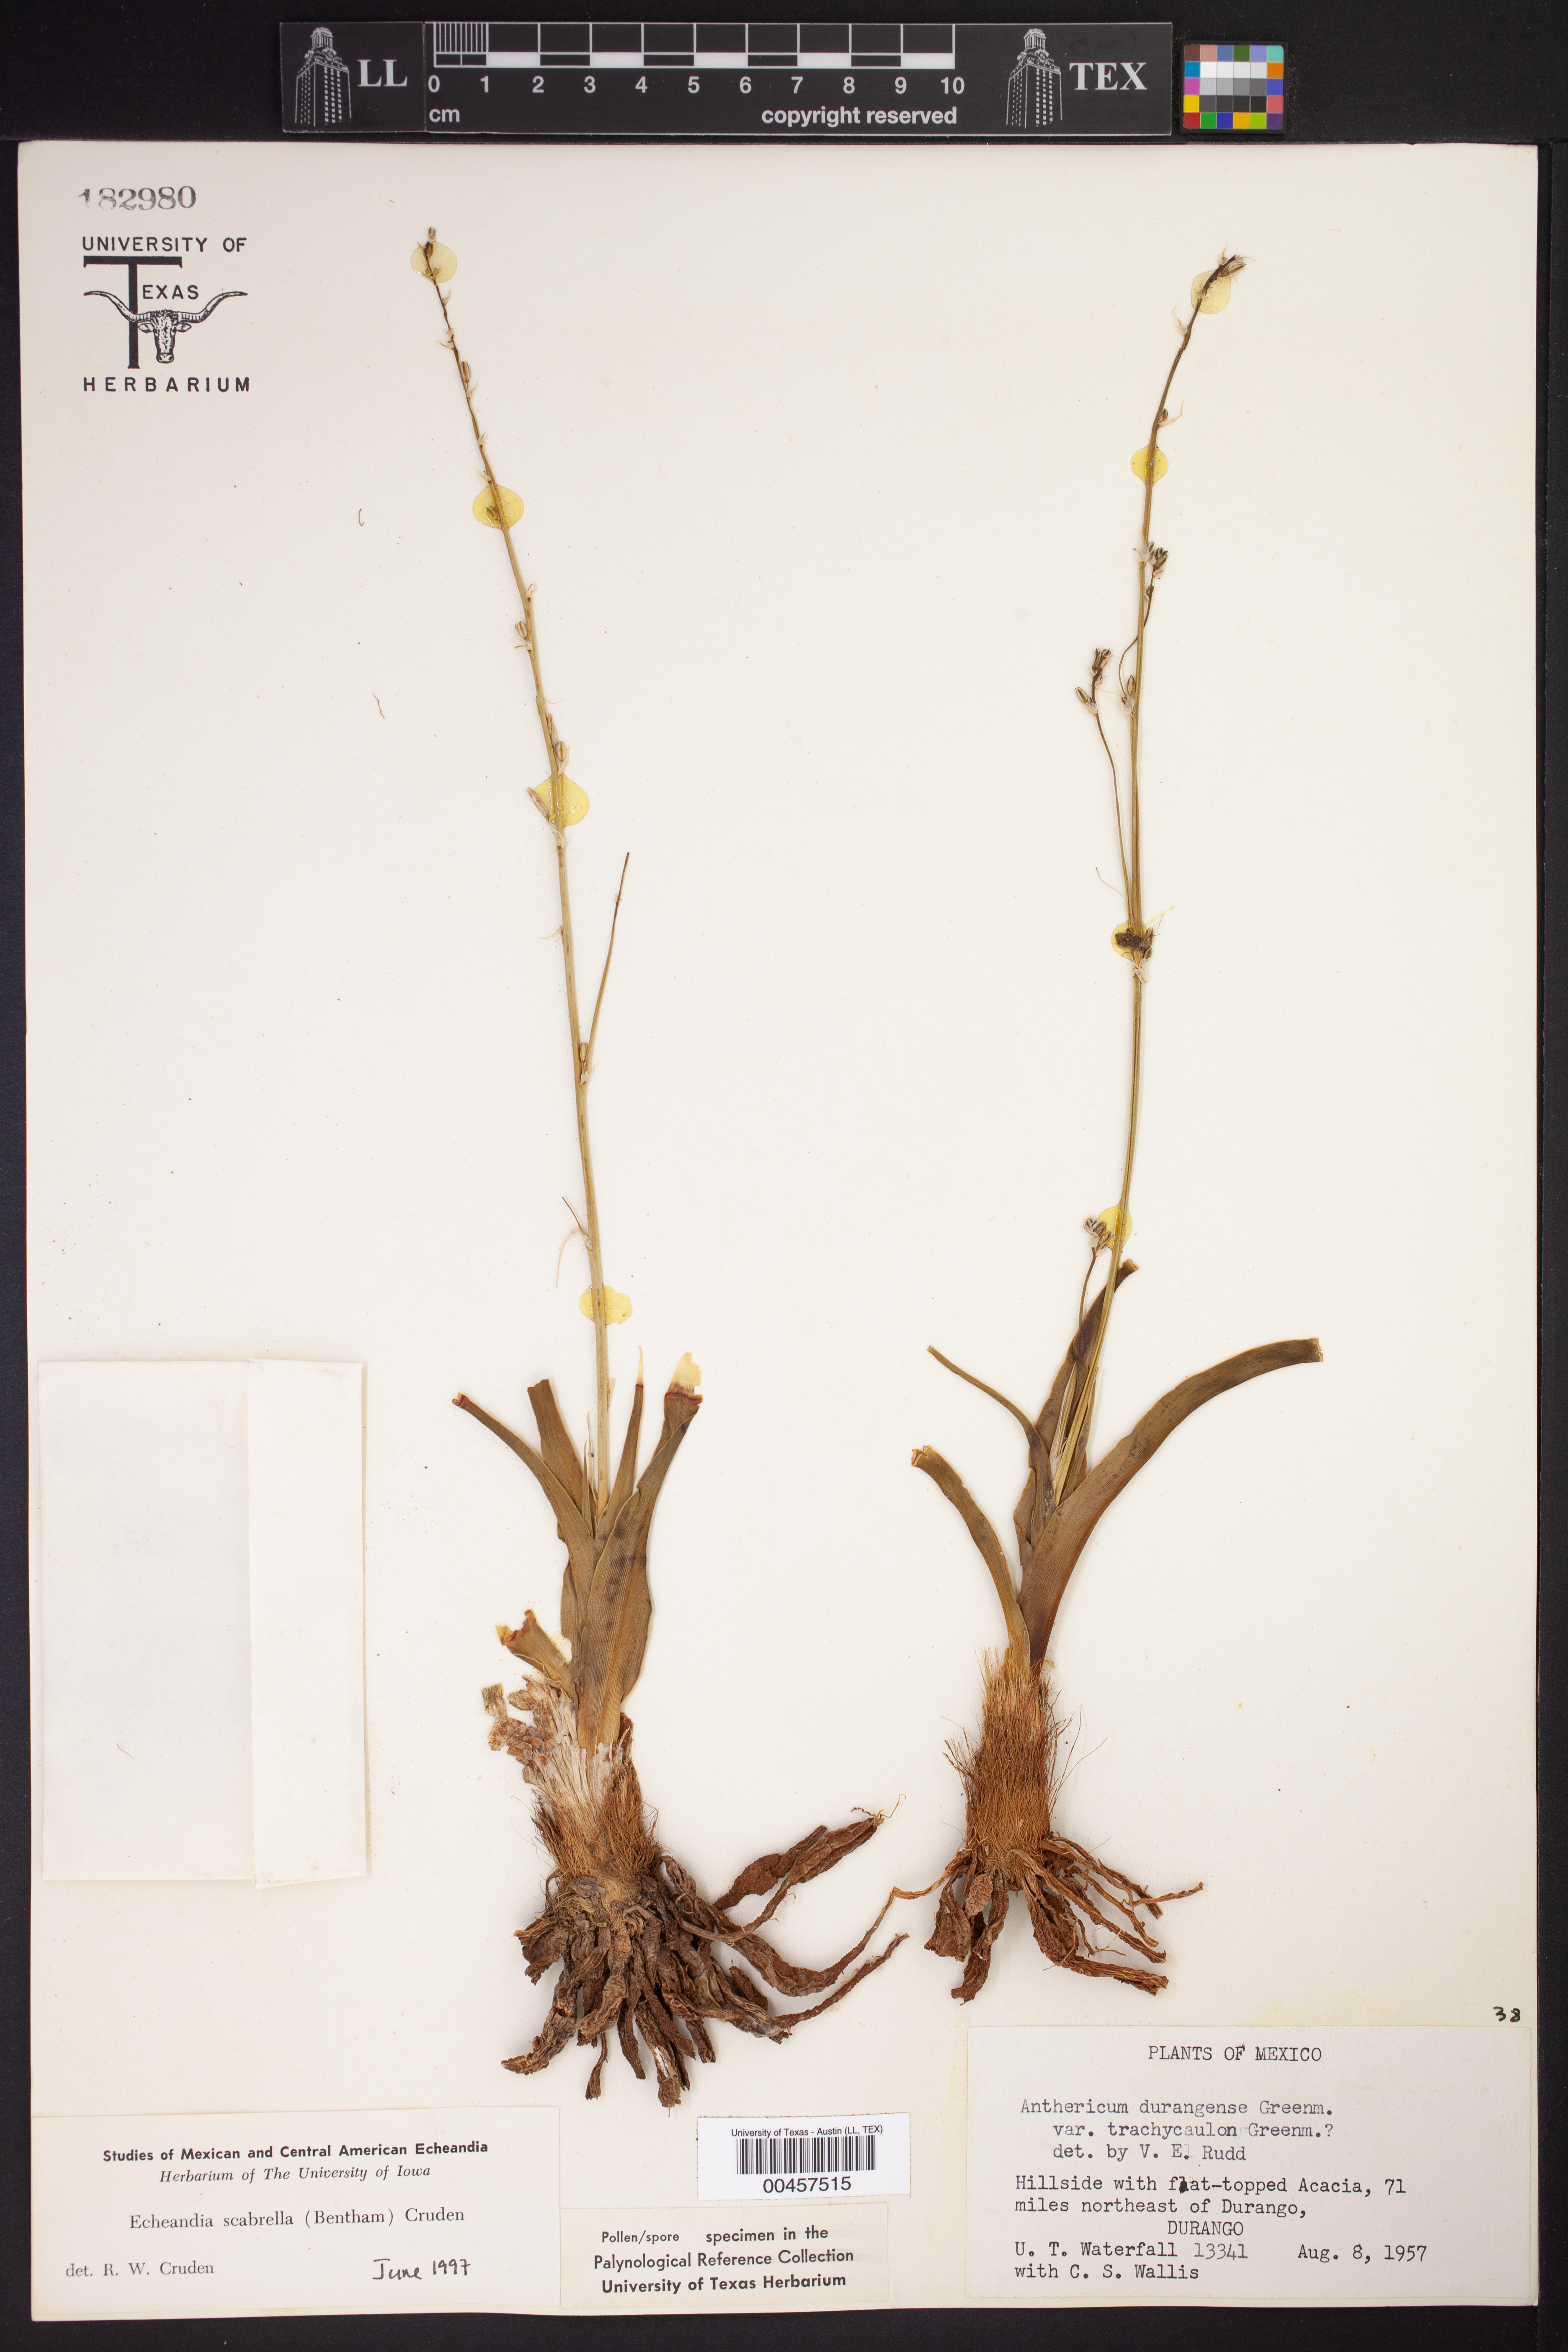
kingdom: Plantae
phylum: Tracheophyta
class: Liliopsida
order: Asparagales
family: Asparagaceae
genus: Echeandia
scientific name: Echeandia scabrella
